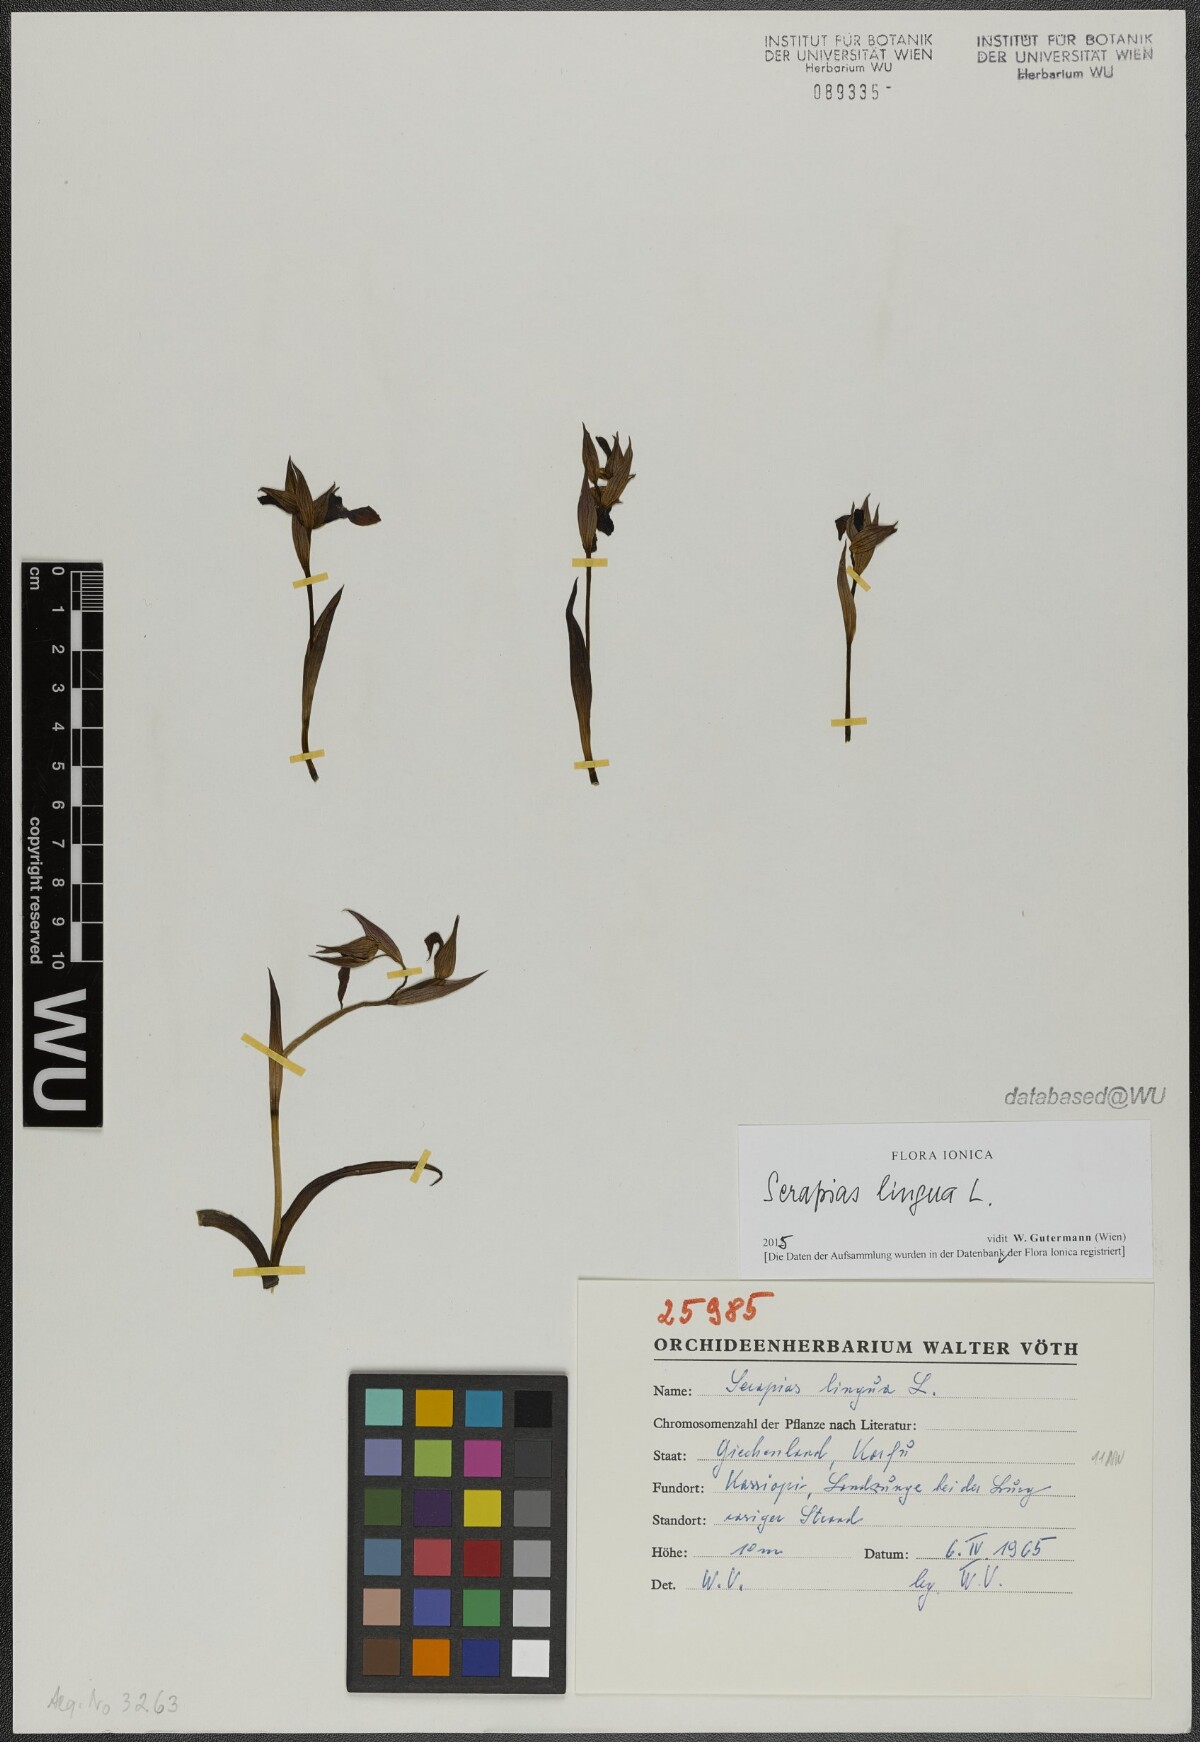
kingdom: Plantae
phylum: Tracheophyta
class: Liliopsida
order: Asparagales
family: Orchidaceae
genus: Serapias
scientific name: Serapias lingua
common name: Tongue-orchid
